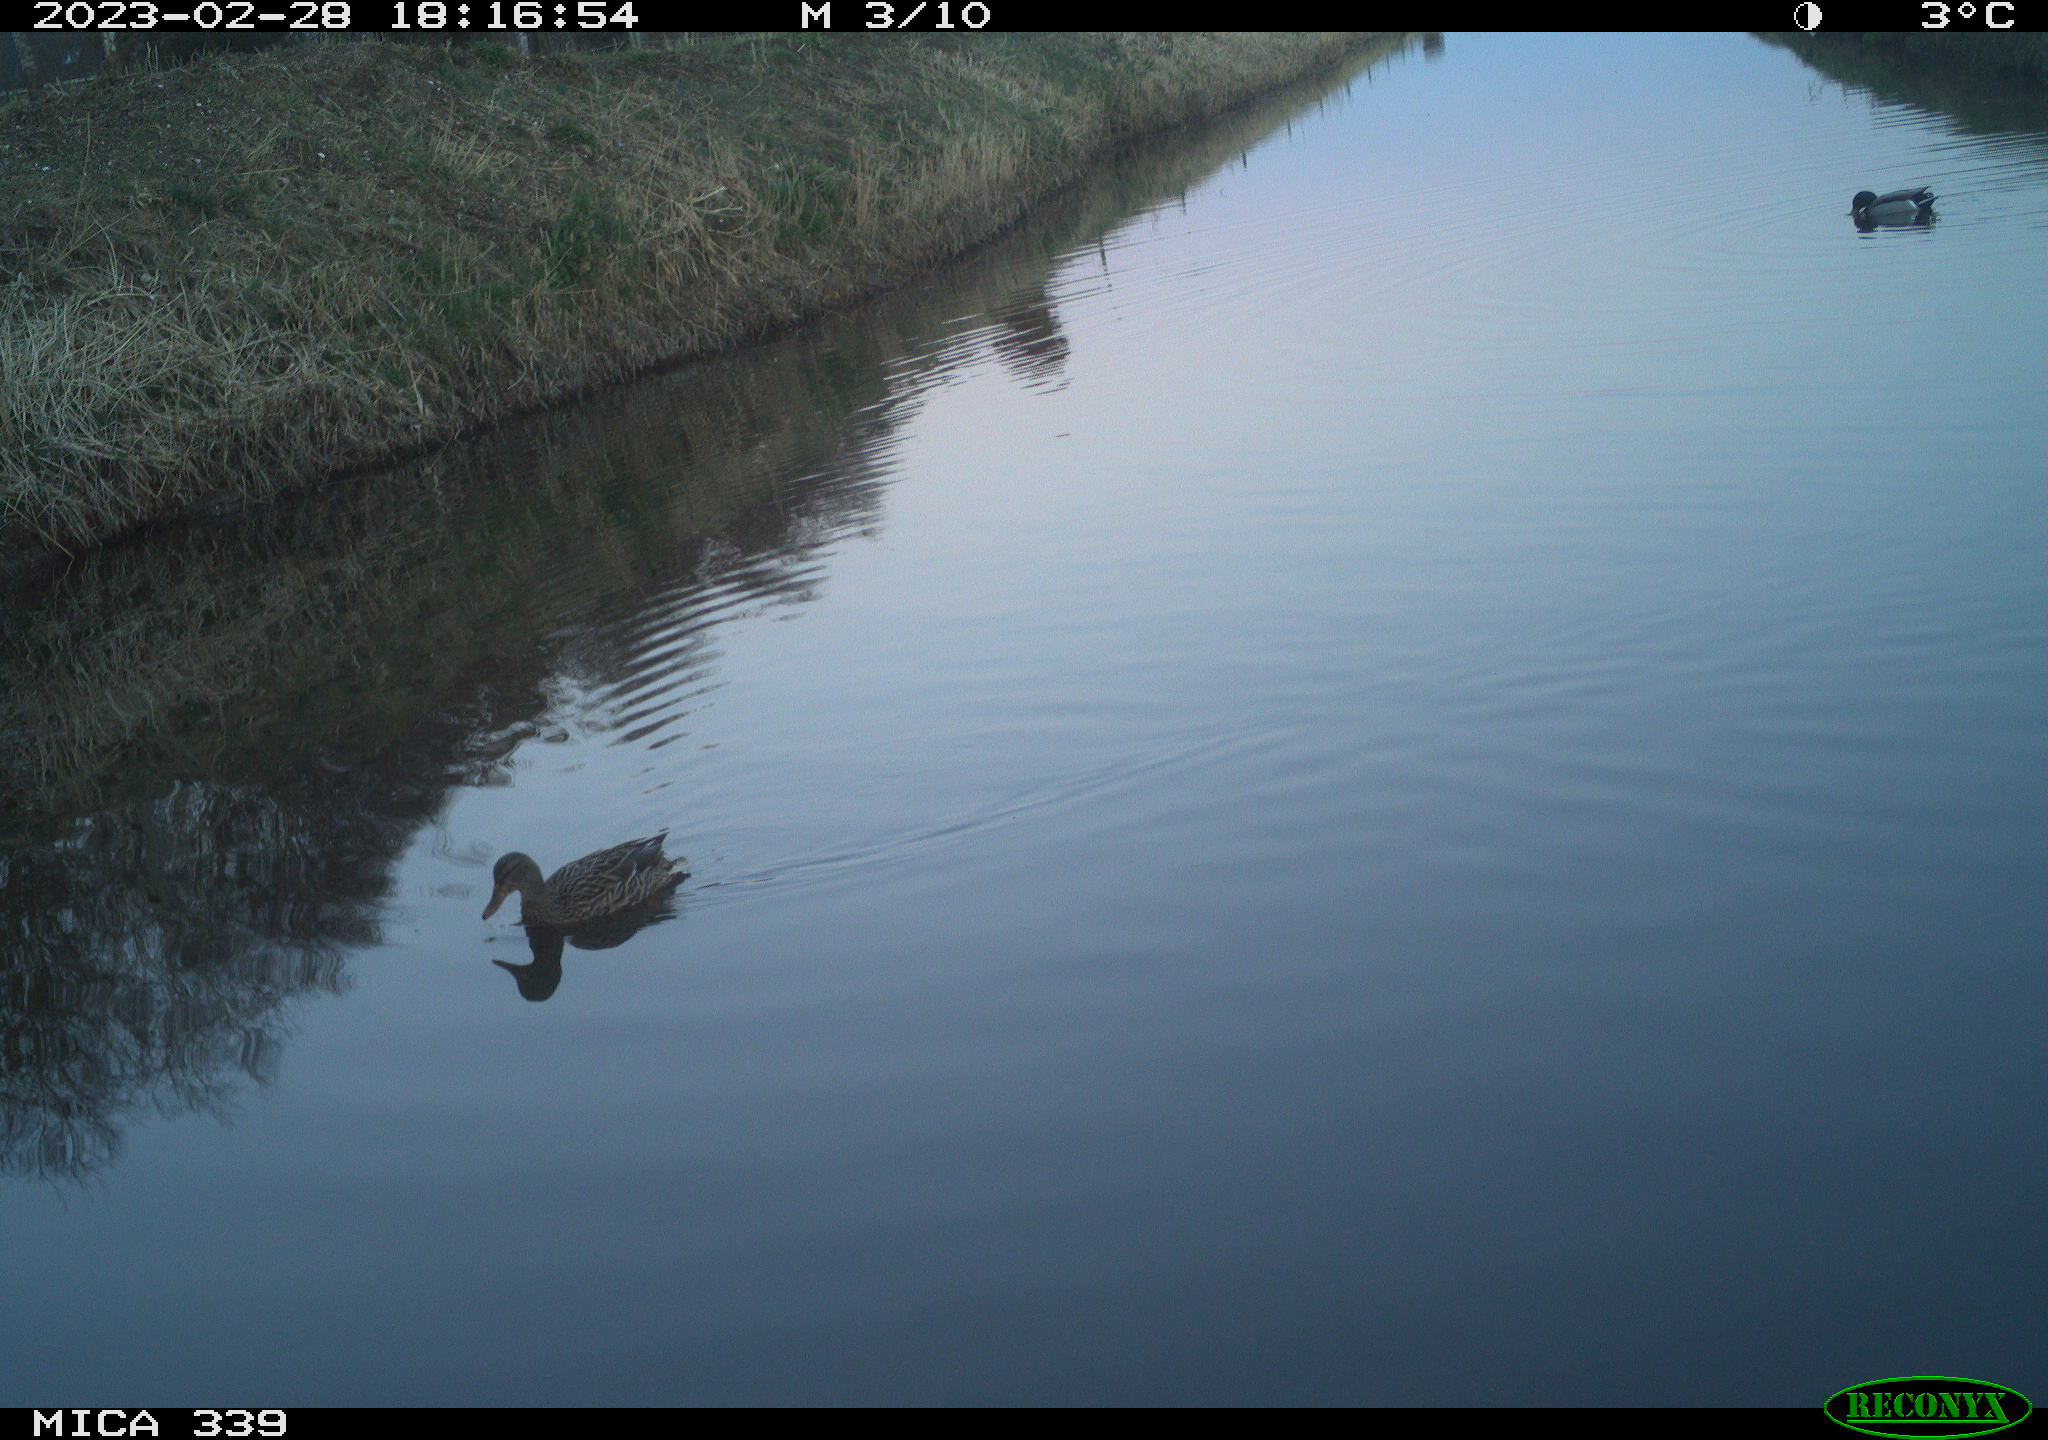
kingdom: Animalia
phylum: Chordata
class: Aves
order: Anseriformes
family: Anatidae
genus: Anas
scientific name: Anas
